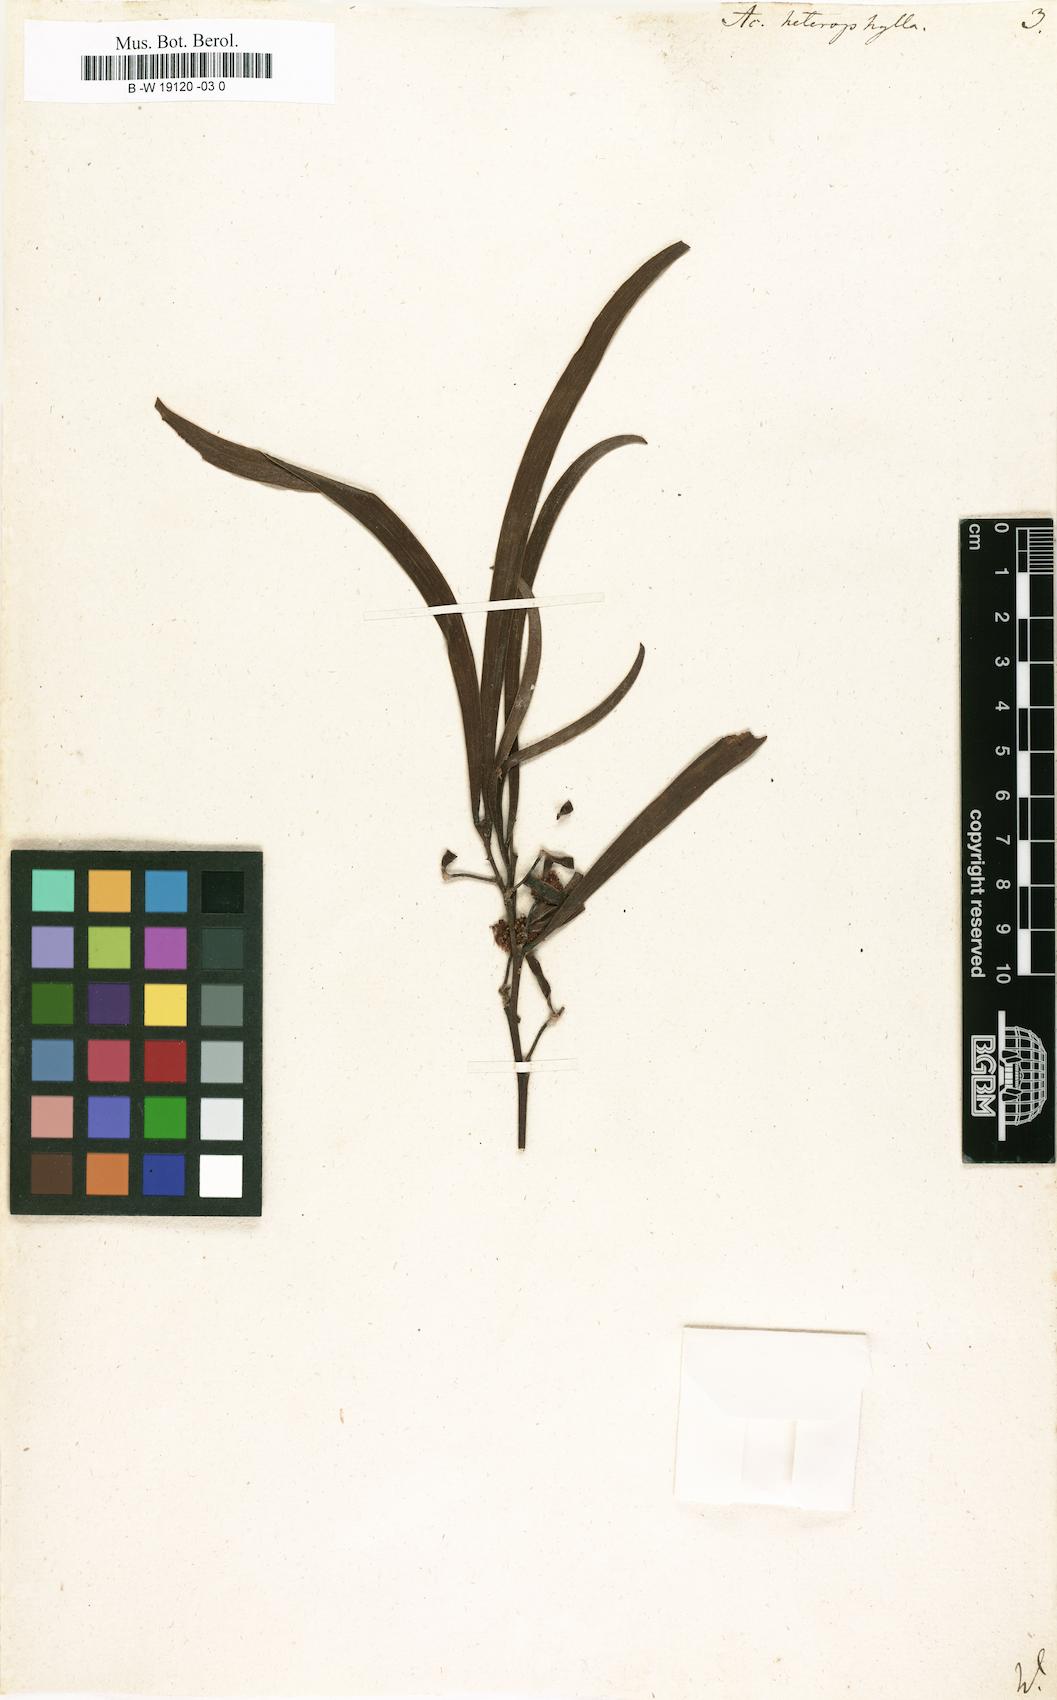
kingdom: Plantae
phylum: Tracheophyta
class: Magnoliopsida
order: Fabales
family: Fabaceae
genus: Acacia
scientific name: Acacia heterophylla
